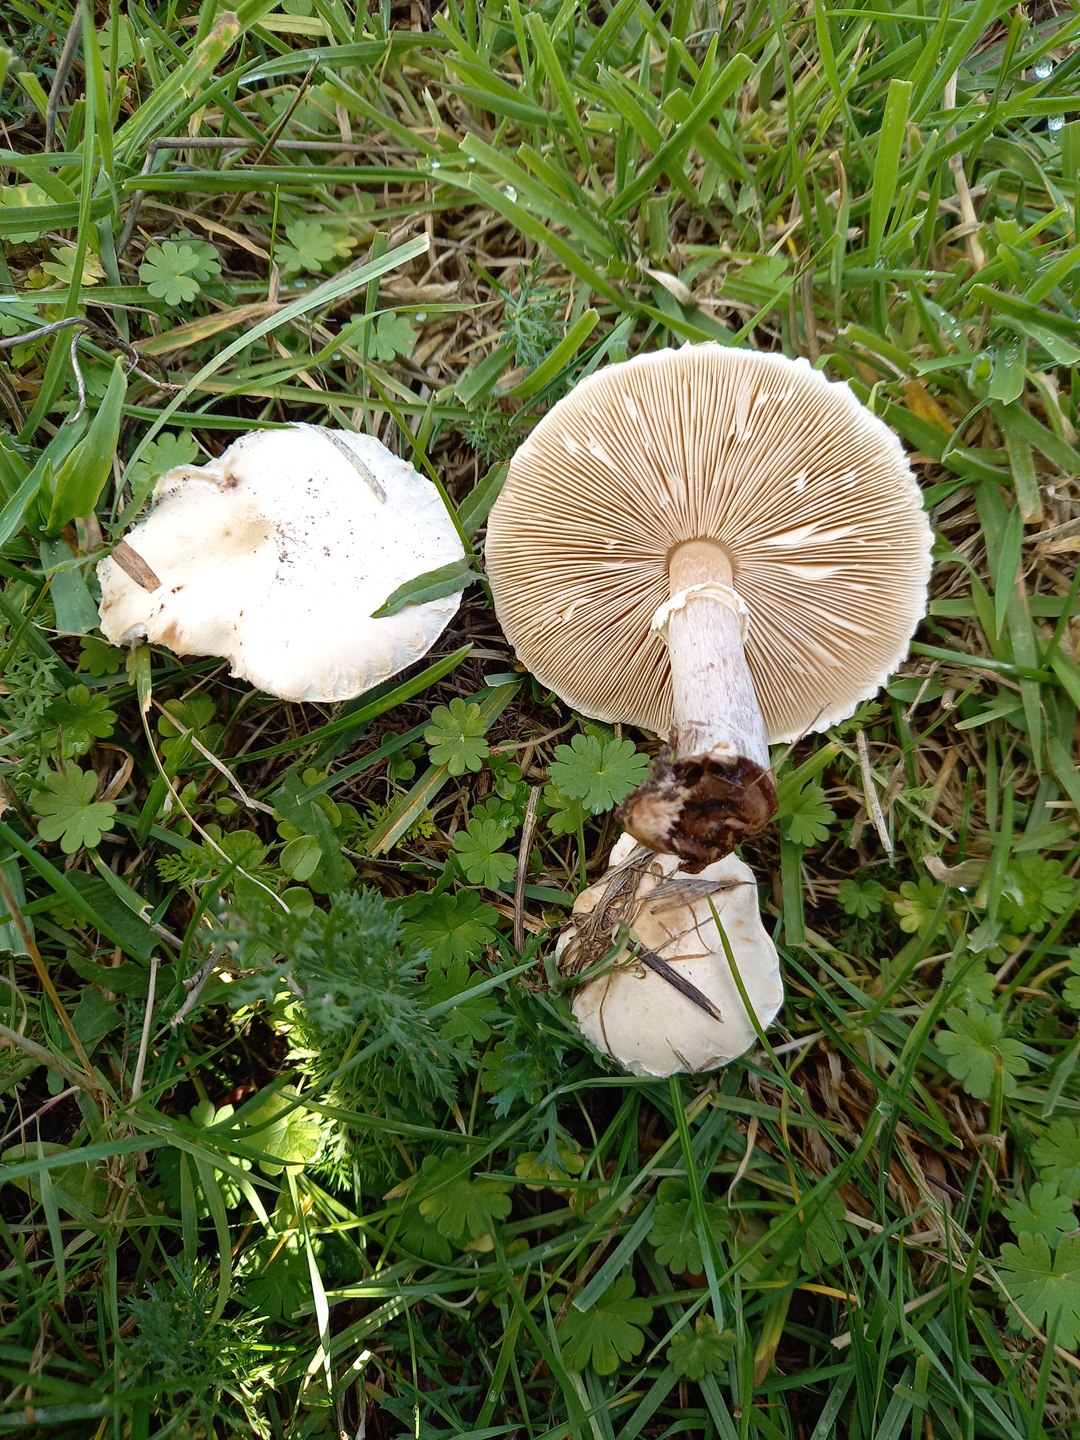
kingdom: Fungi
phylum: Basidiomycota
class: Agaricomycetes
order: Agaricales
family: Agaricaceae
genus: Leucoagaricus
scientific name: Leucoagaricus leucothites
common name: rosabladet silkehat
